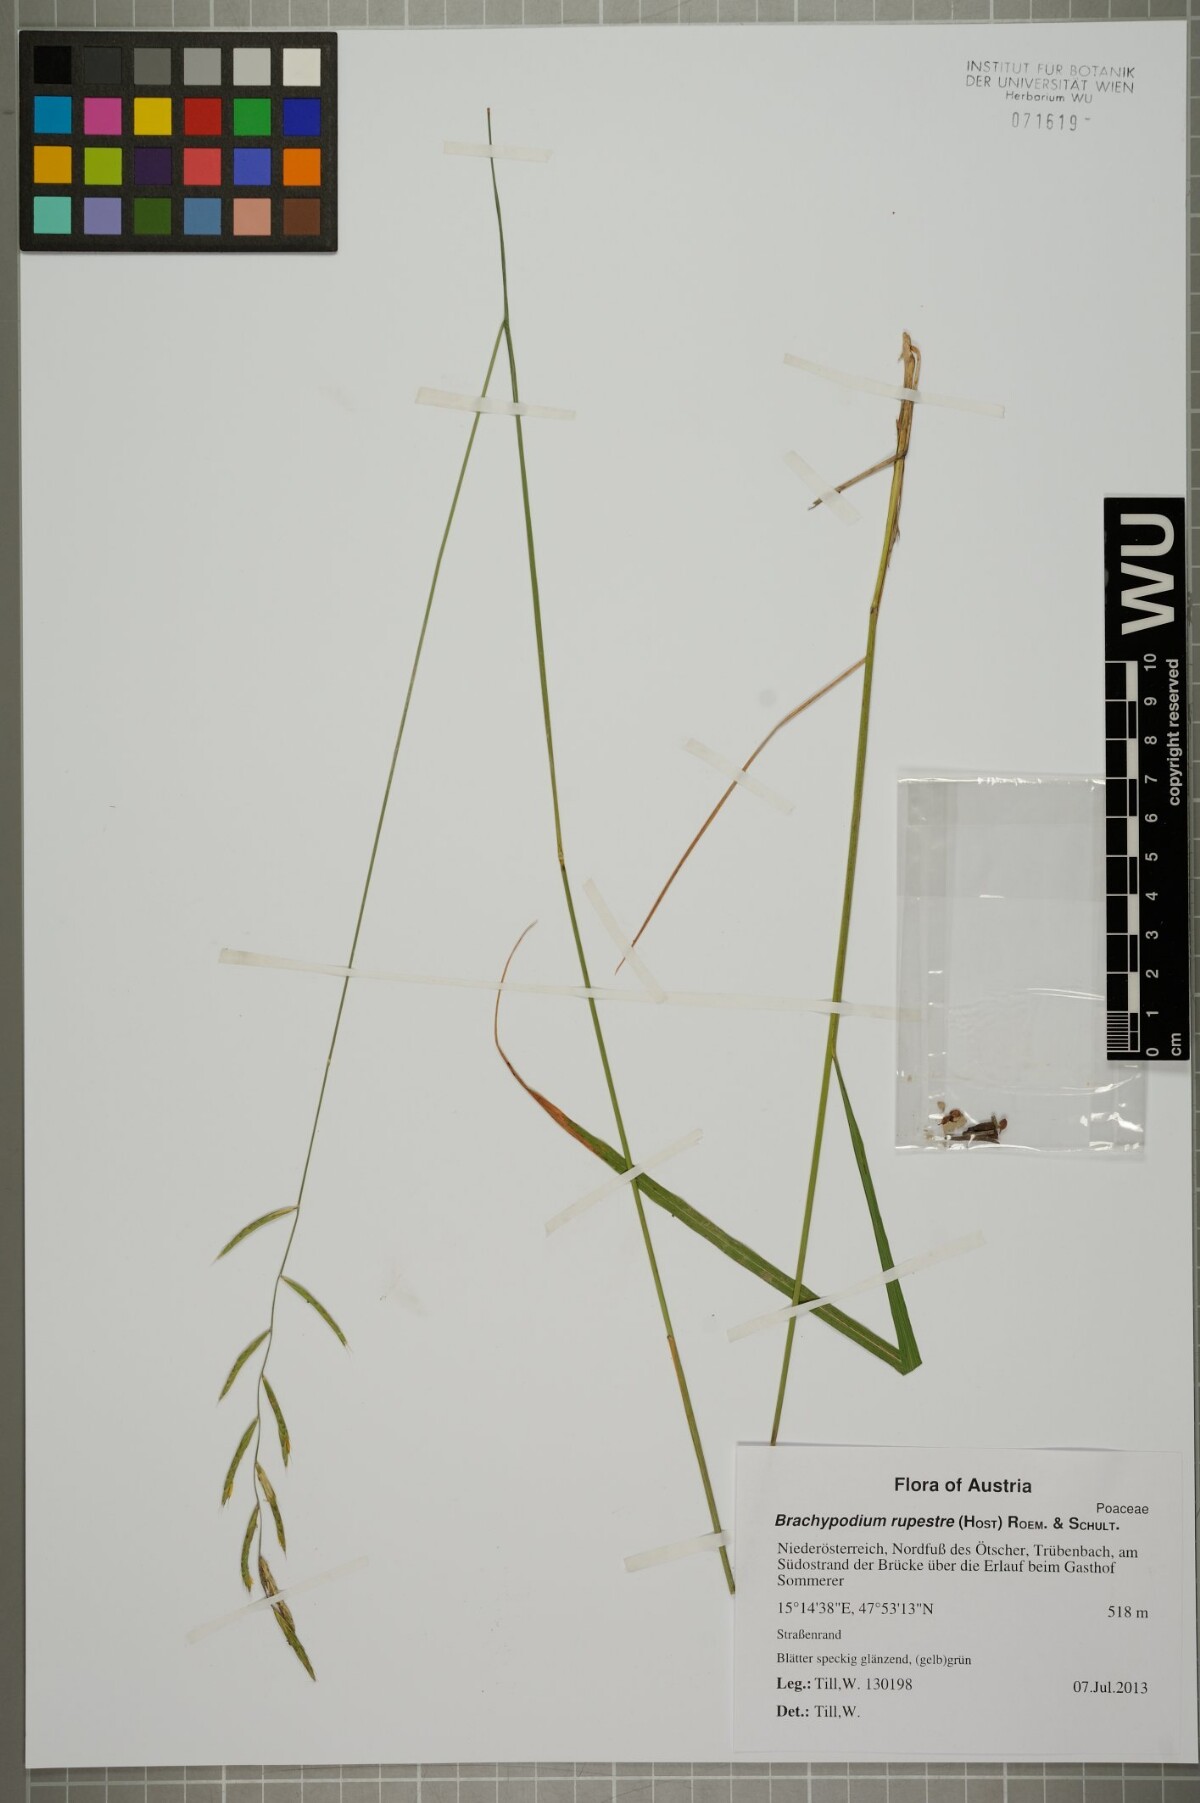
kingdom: Plantae
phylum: Tracheophyta
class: Liliopsida
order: Poales
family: Poaceae
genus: Brachypodium
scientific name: Brachypodium pinnatum
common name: Tor grass
